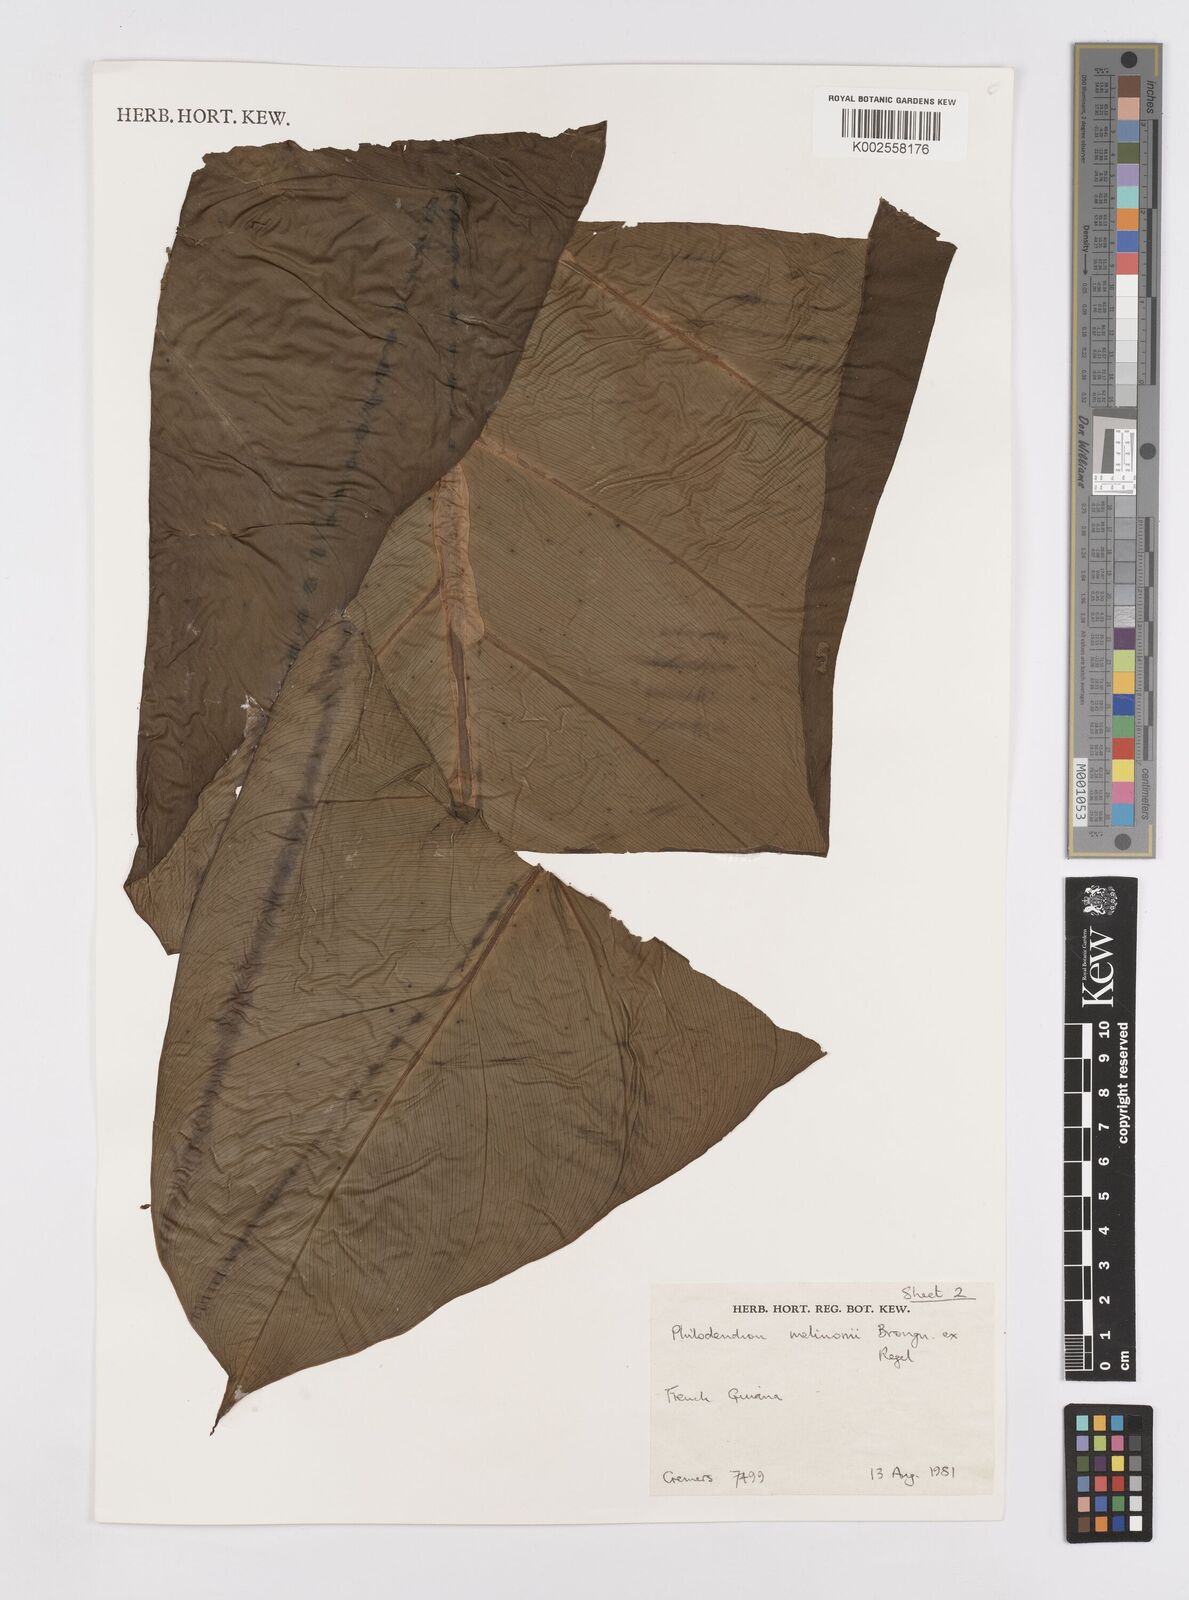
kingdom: Plantae
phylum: Tracheophyta
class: Liliopsida
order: Alismatales
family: Araceae
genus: Philodendron
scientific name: Philodendron melinonii
